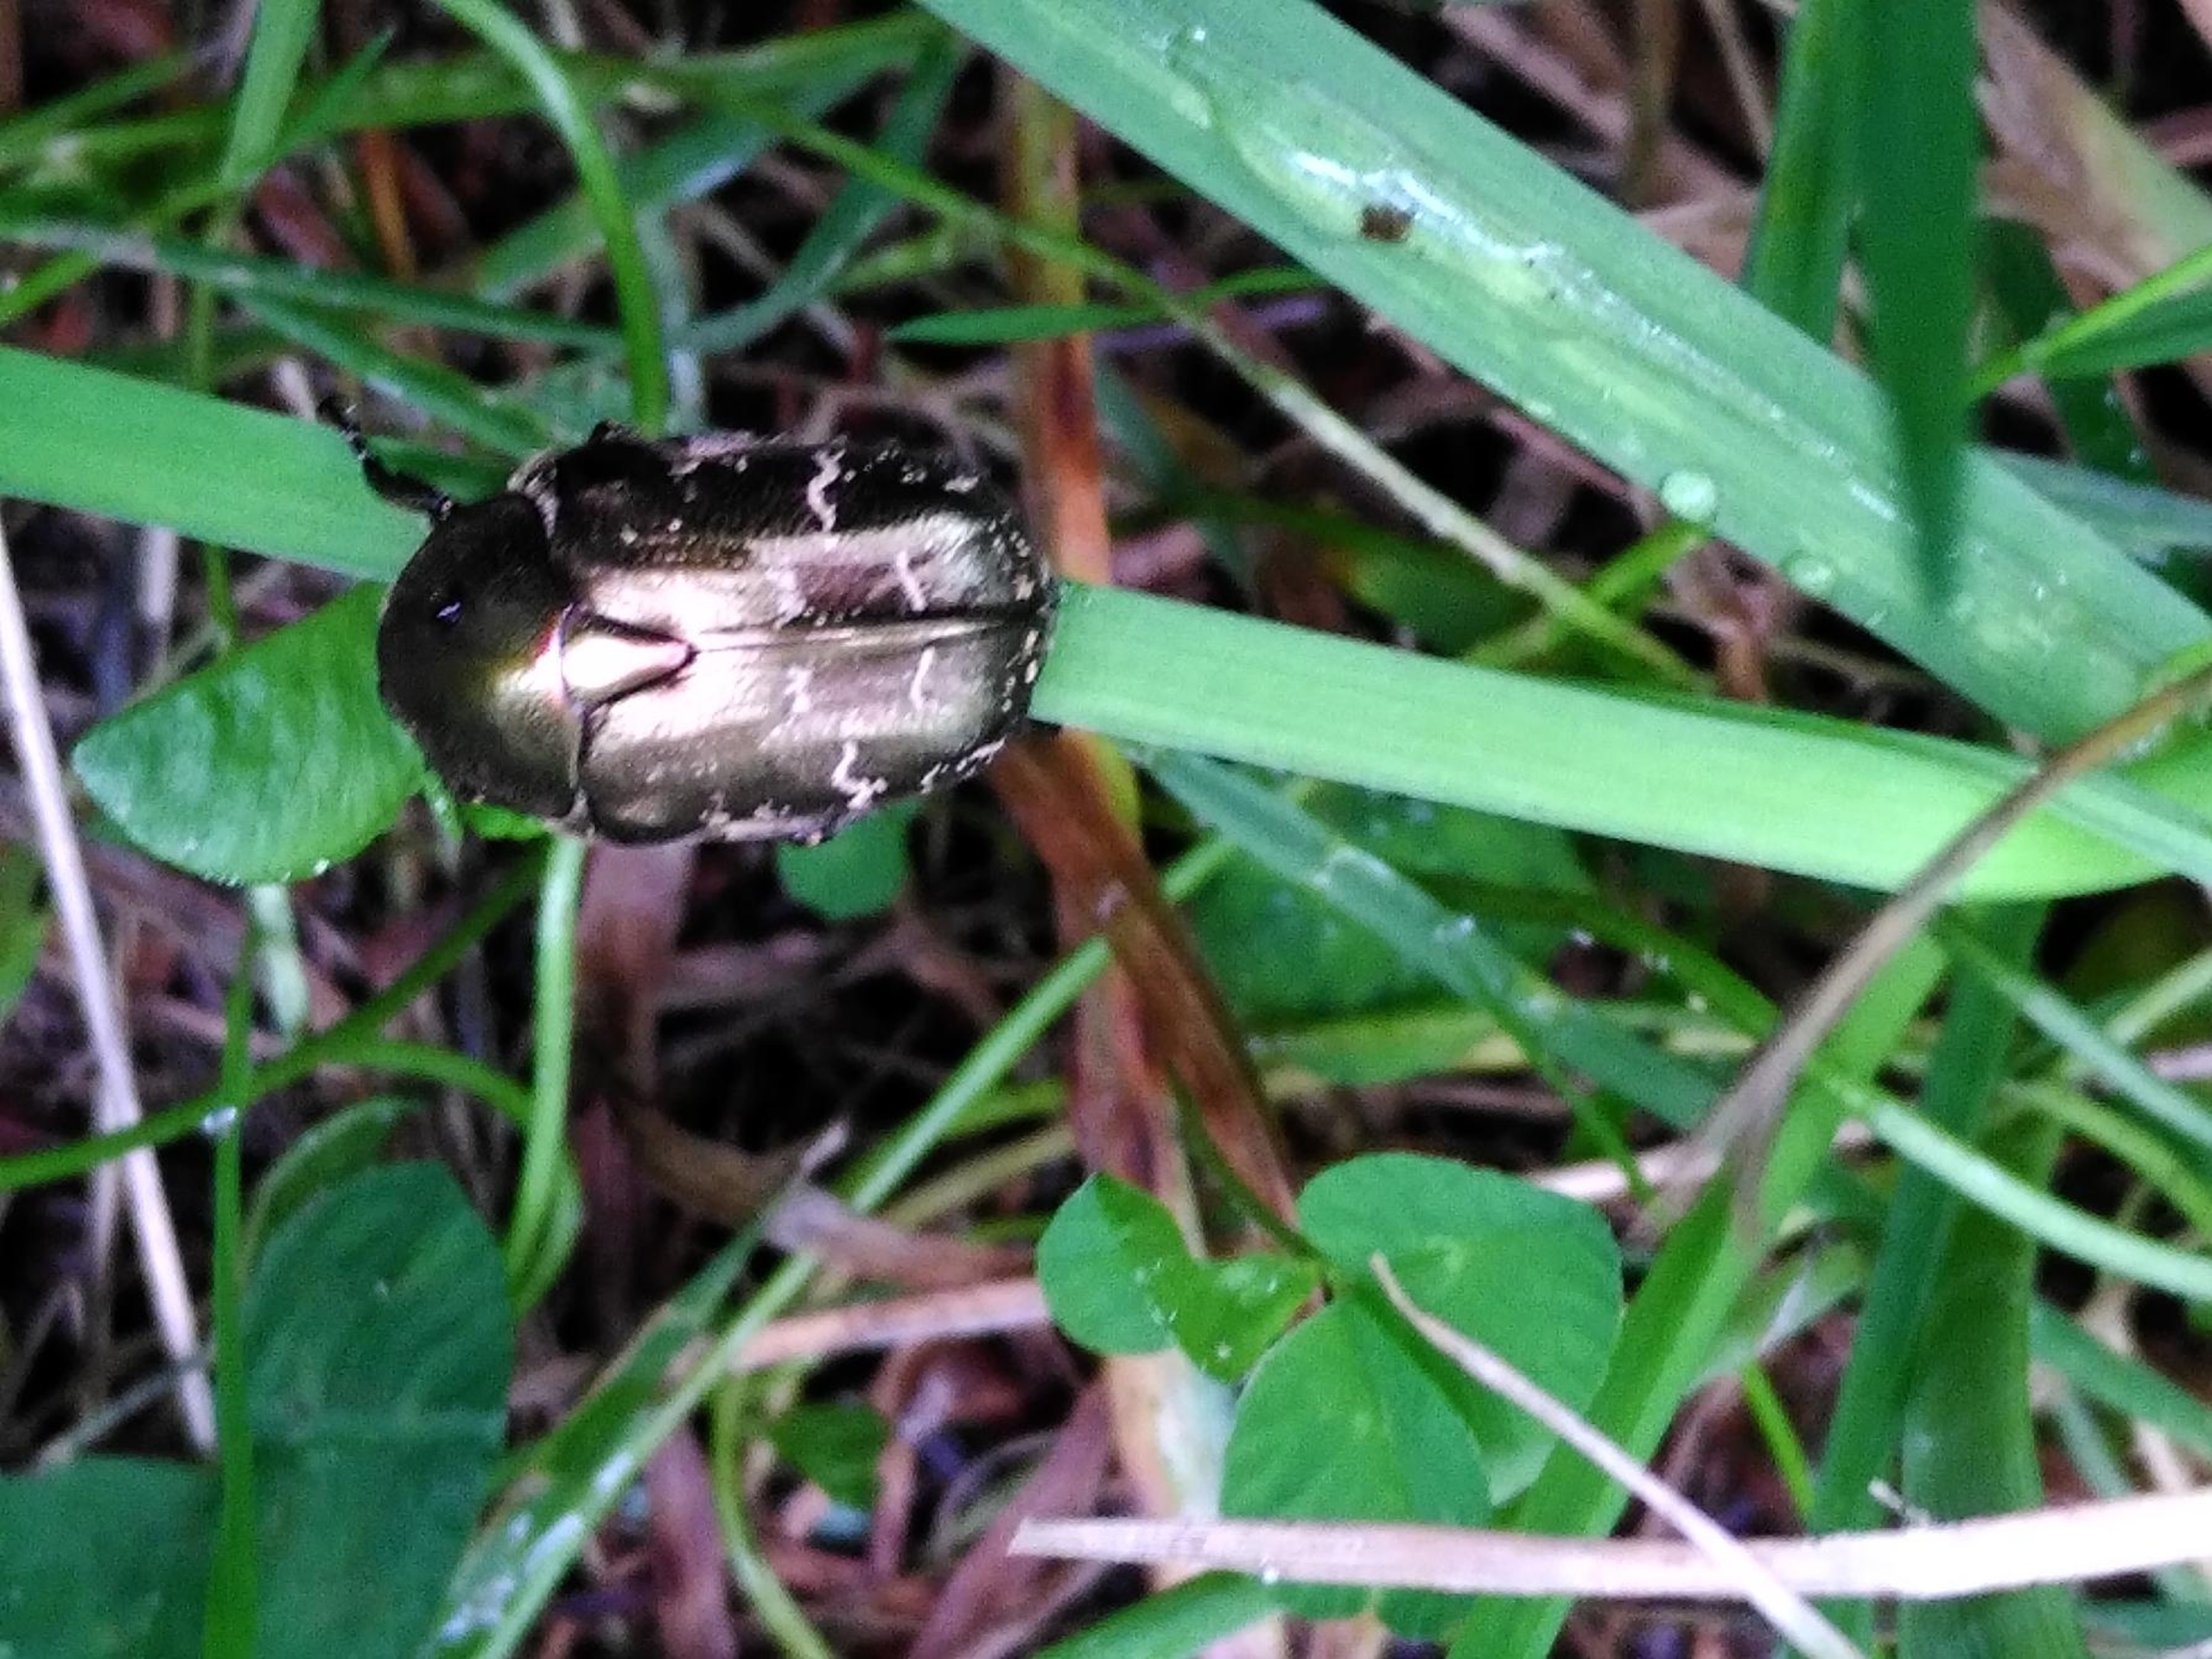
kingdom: Animalia
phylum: Arthropoda
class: Insecta
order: Coleoptera
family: Scarabaeidae
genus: Protaetia
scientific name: Protaetia cuprea
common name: Kobberguldbasse
